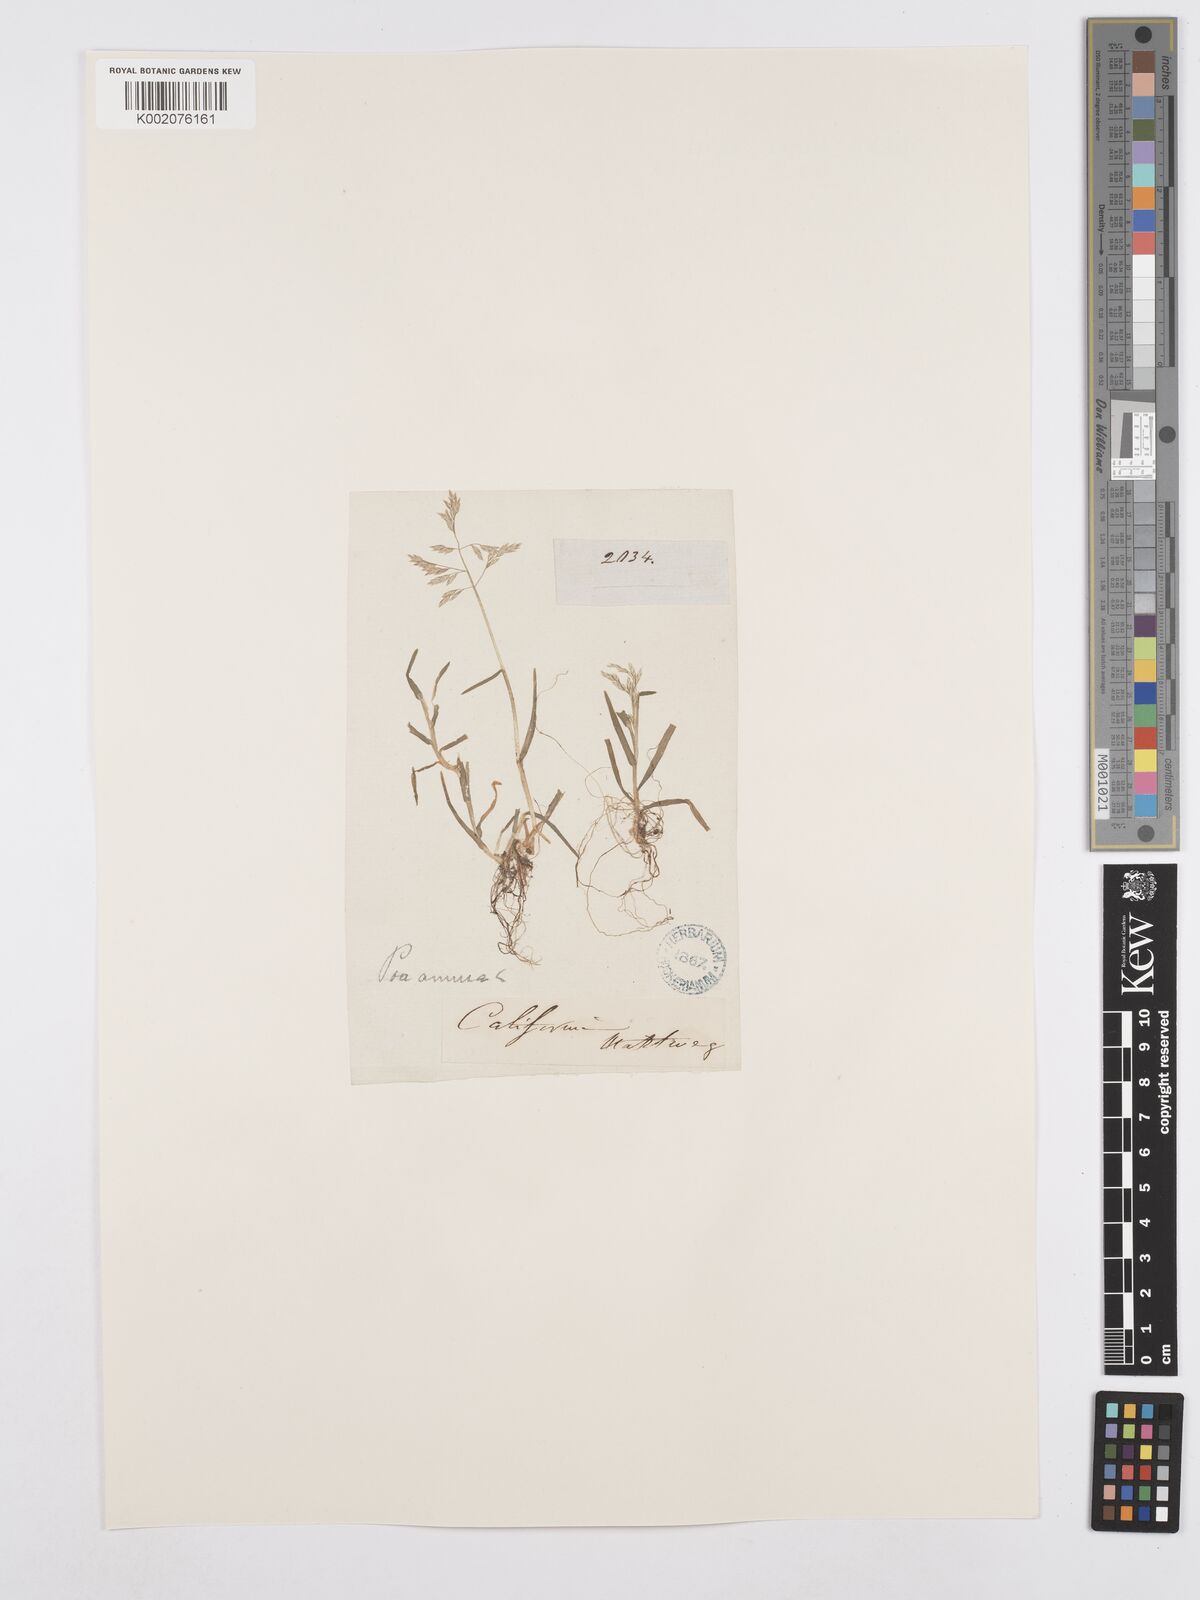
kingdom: Plantae
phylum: Tracheophyta
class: Liliopsida
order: Poales
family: Poaceae
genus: Poa
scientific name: Poa annua
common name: Annual bluegrass
